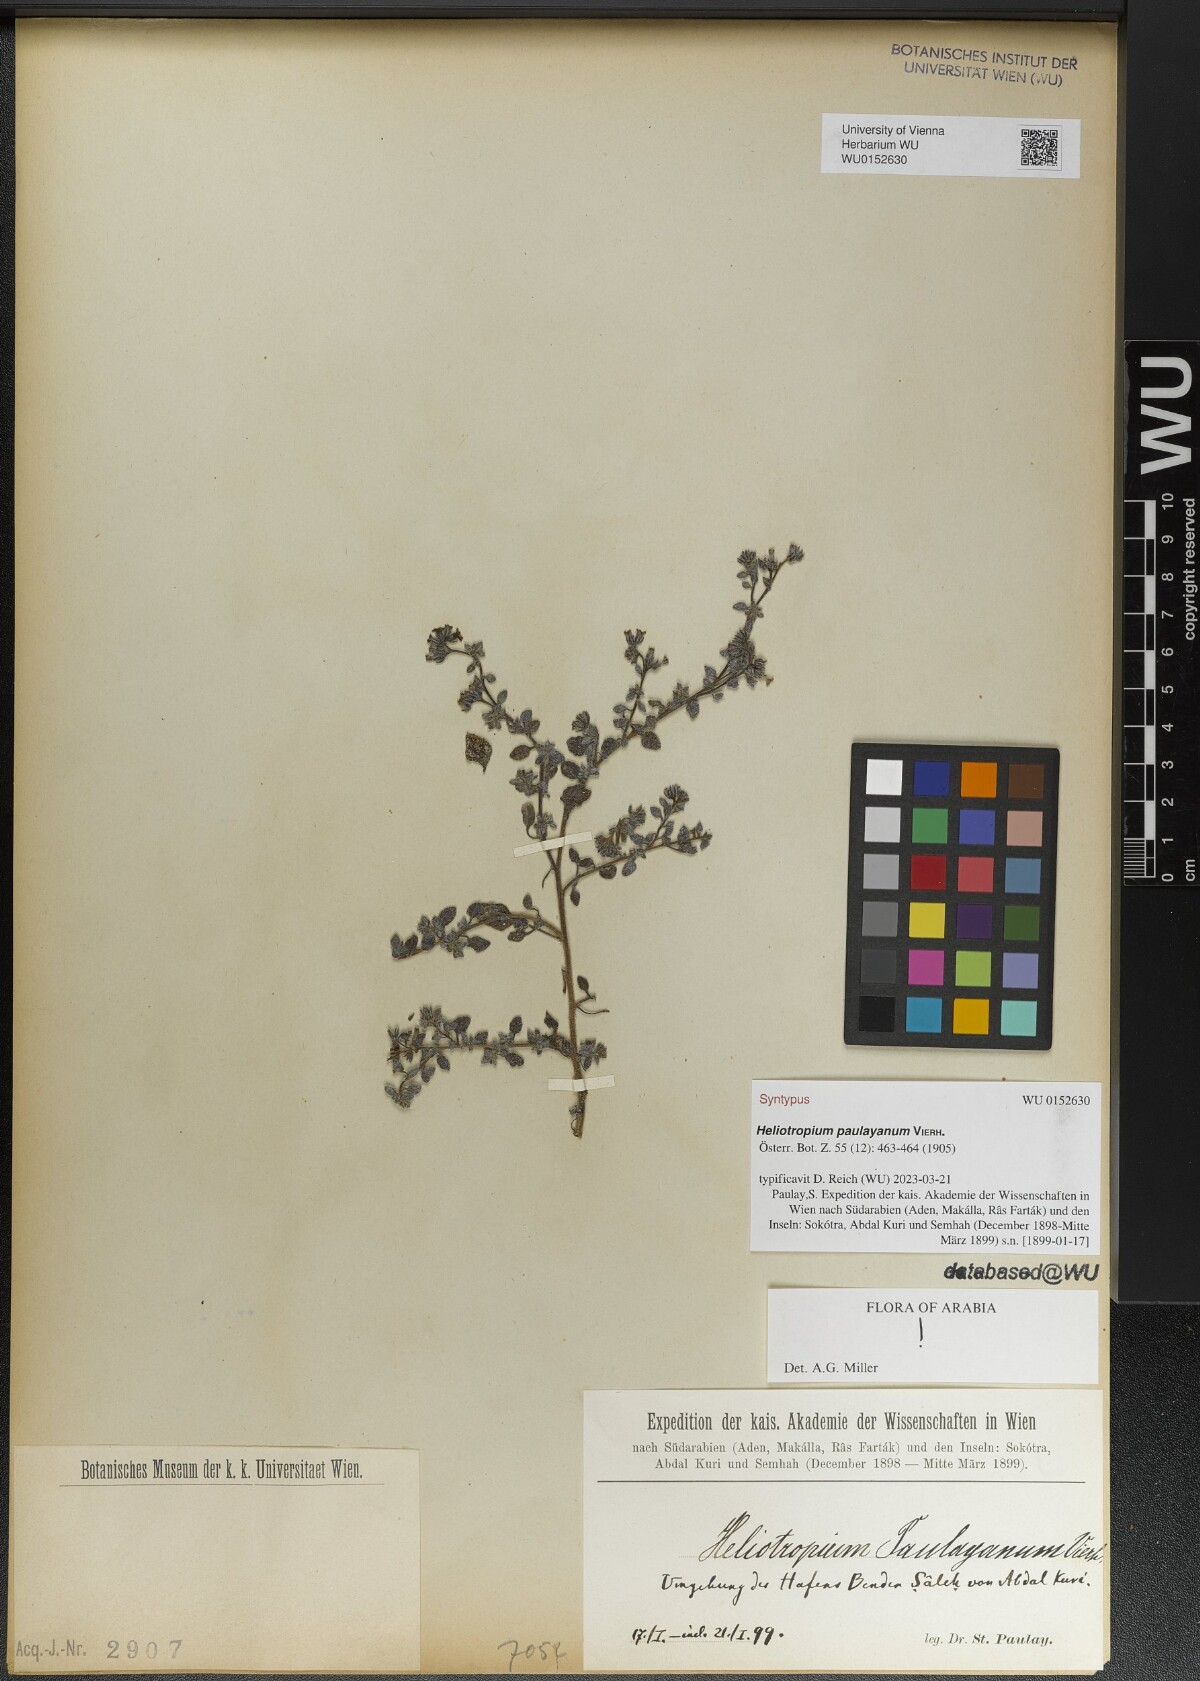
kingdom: Plantae
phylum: Tracheophyta
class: Magnoliopsida
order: Boraginales
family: Heliotropiaceae
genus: Heliotropium
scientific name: Heliotropium paulayanum
